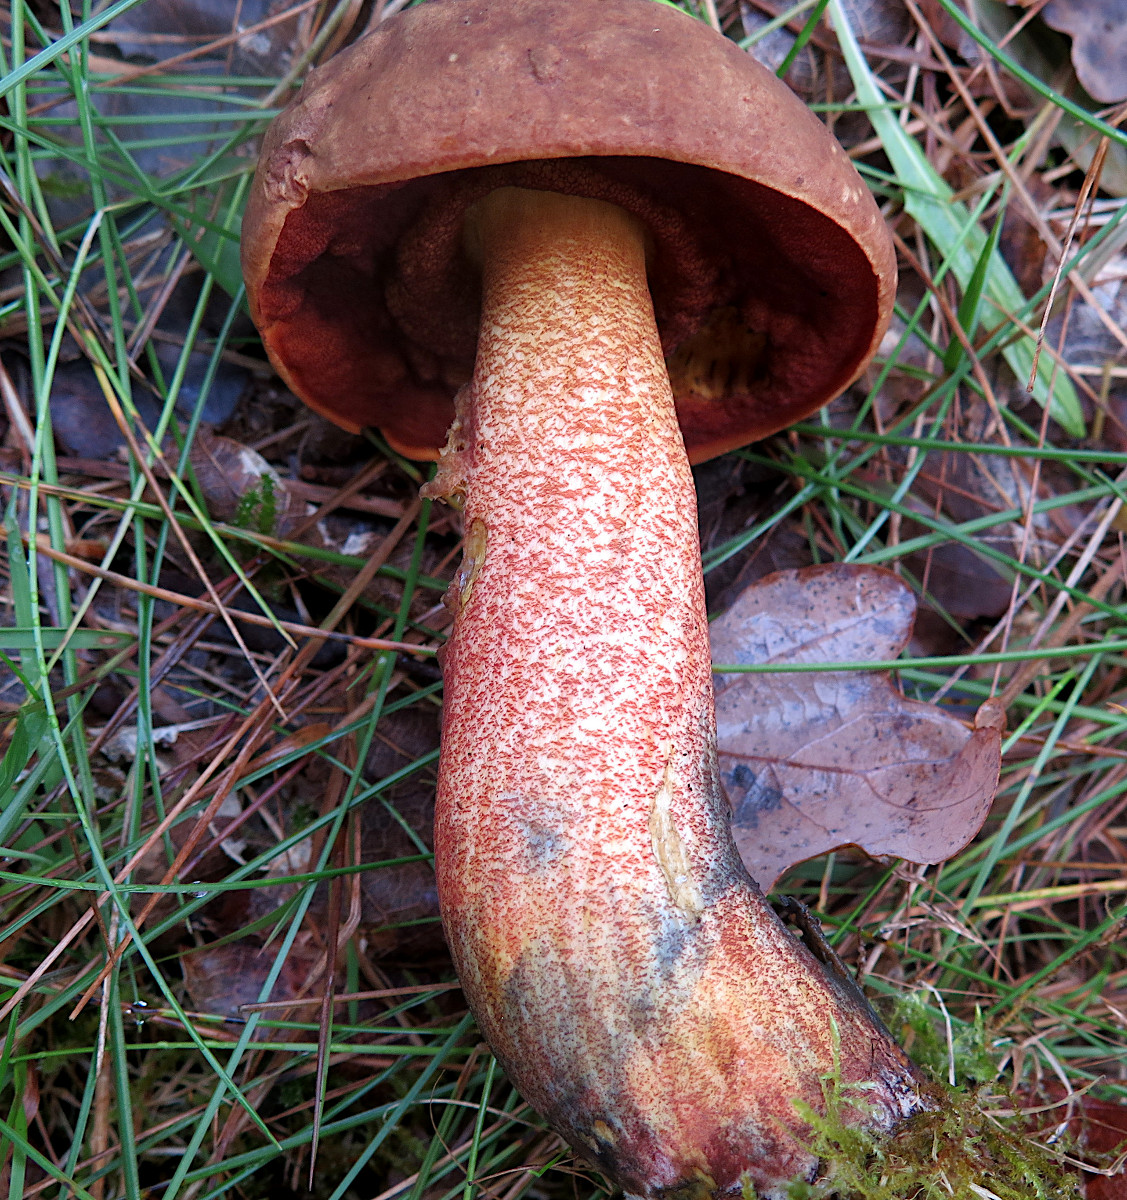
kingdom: Fungi
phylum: Basidiomycota
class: Agaricomycetes
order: Boletales
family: Boletaceae
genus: Neoboletus
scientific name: Neoboletus erythropus
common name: punktstokket indigorørhat
